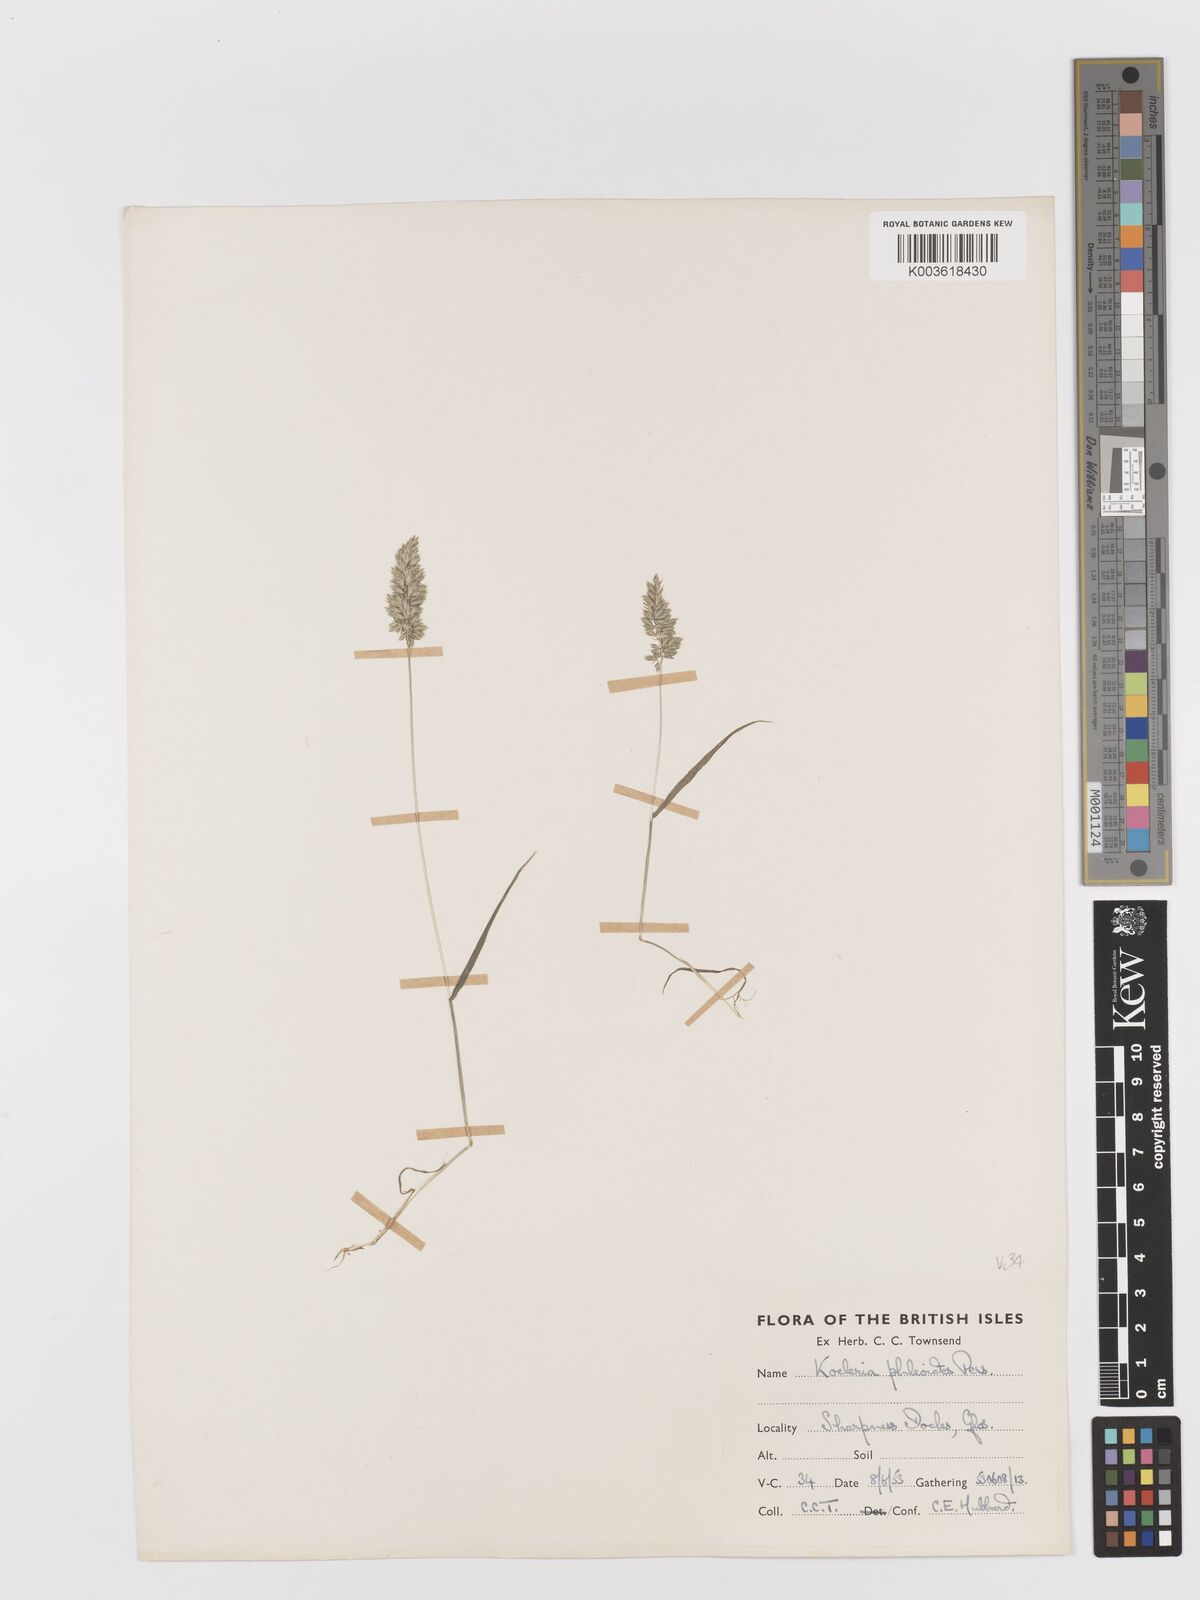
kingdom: Plantae
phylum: Tracheophyta
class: Liliopsida
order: Poales
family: Poaceae
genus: Rostraria
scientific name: Rostraria cristata
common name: Mediterranean hair-grass
